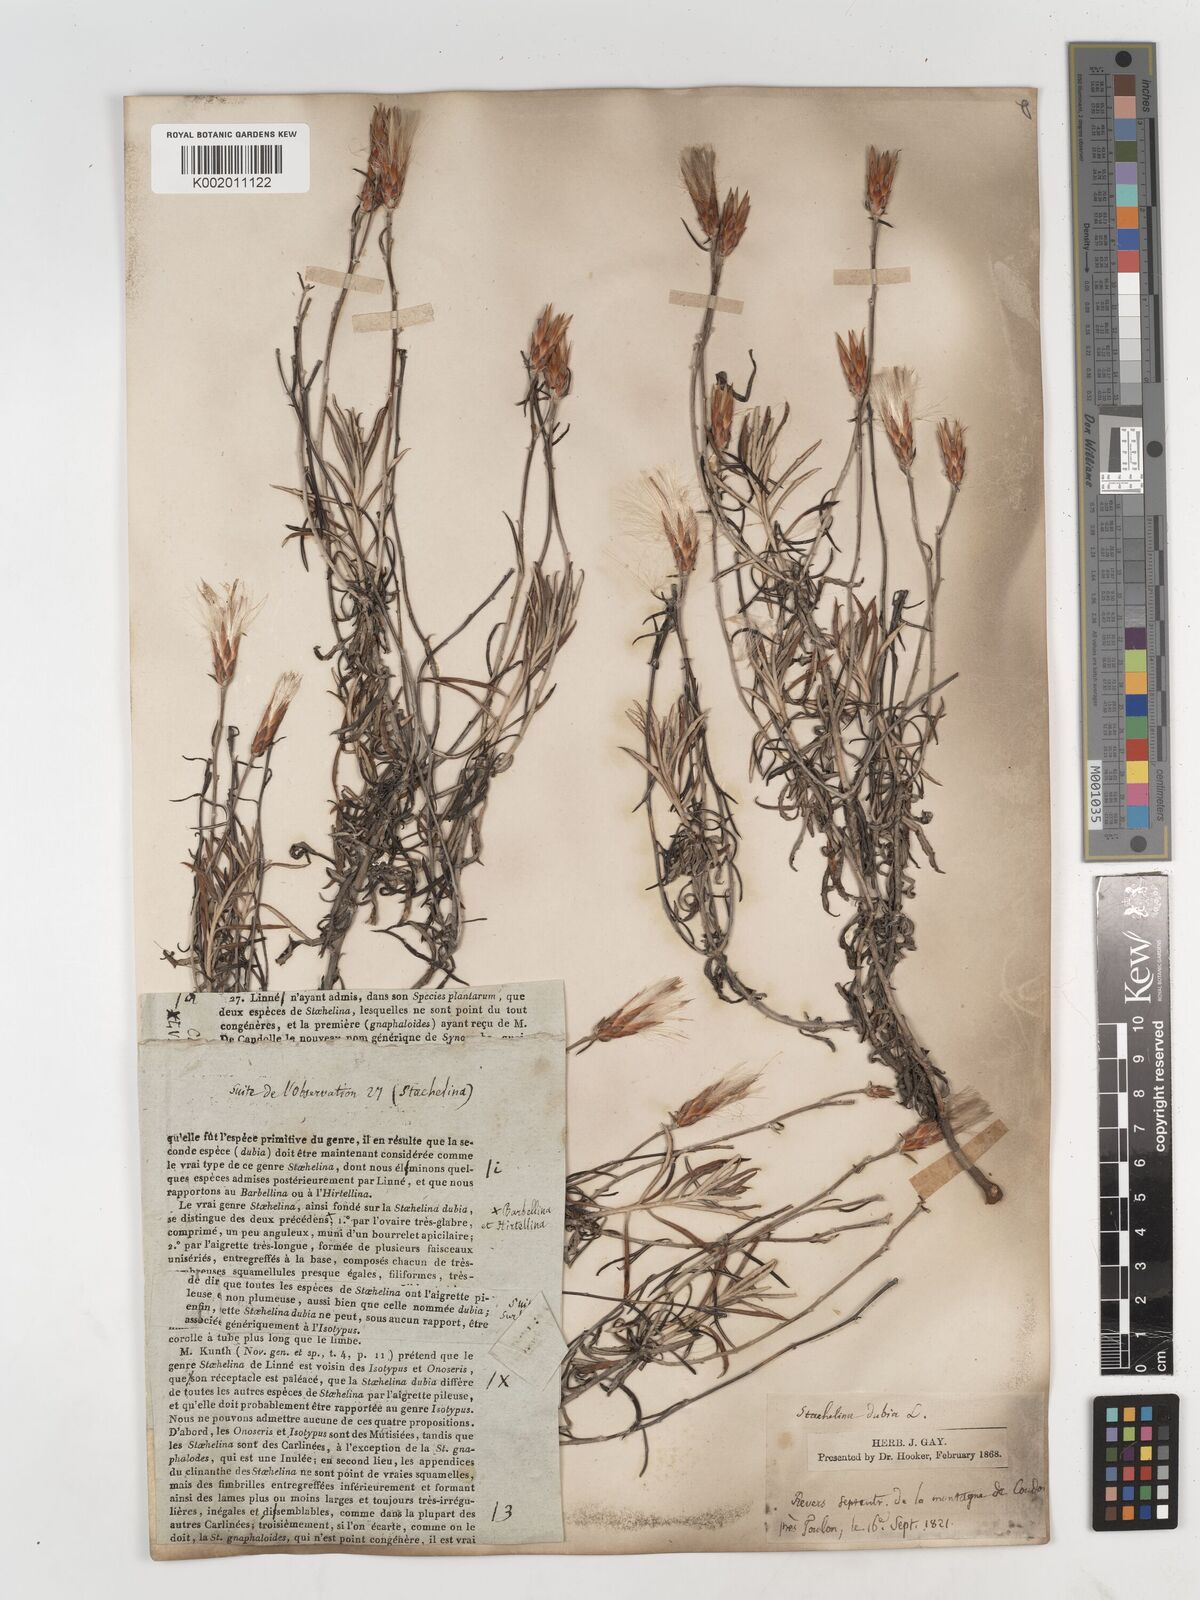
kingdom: Plantae
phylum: Tracheophyta
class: Magnoliopsida
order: Asterales
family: Asteraceae
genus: Staehelina
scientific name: Staehelina dubia
